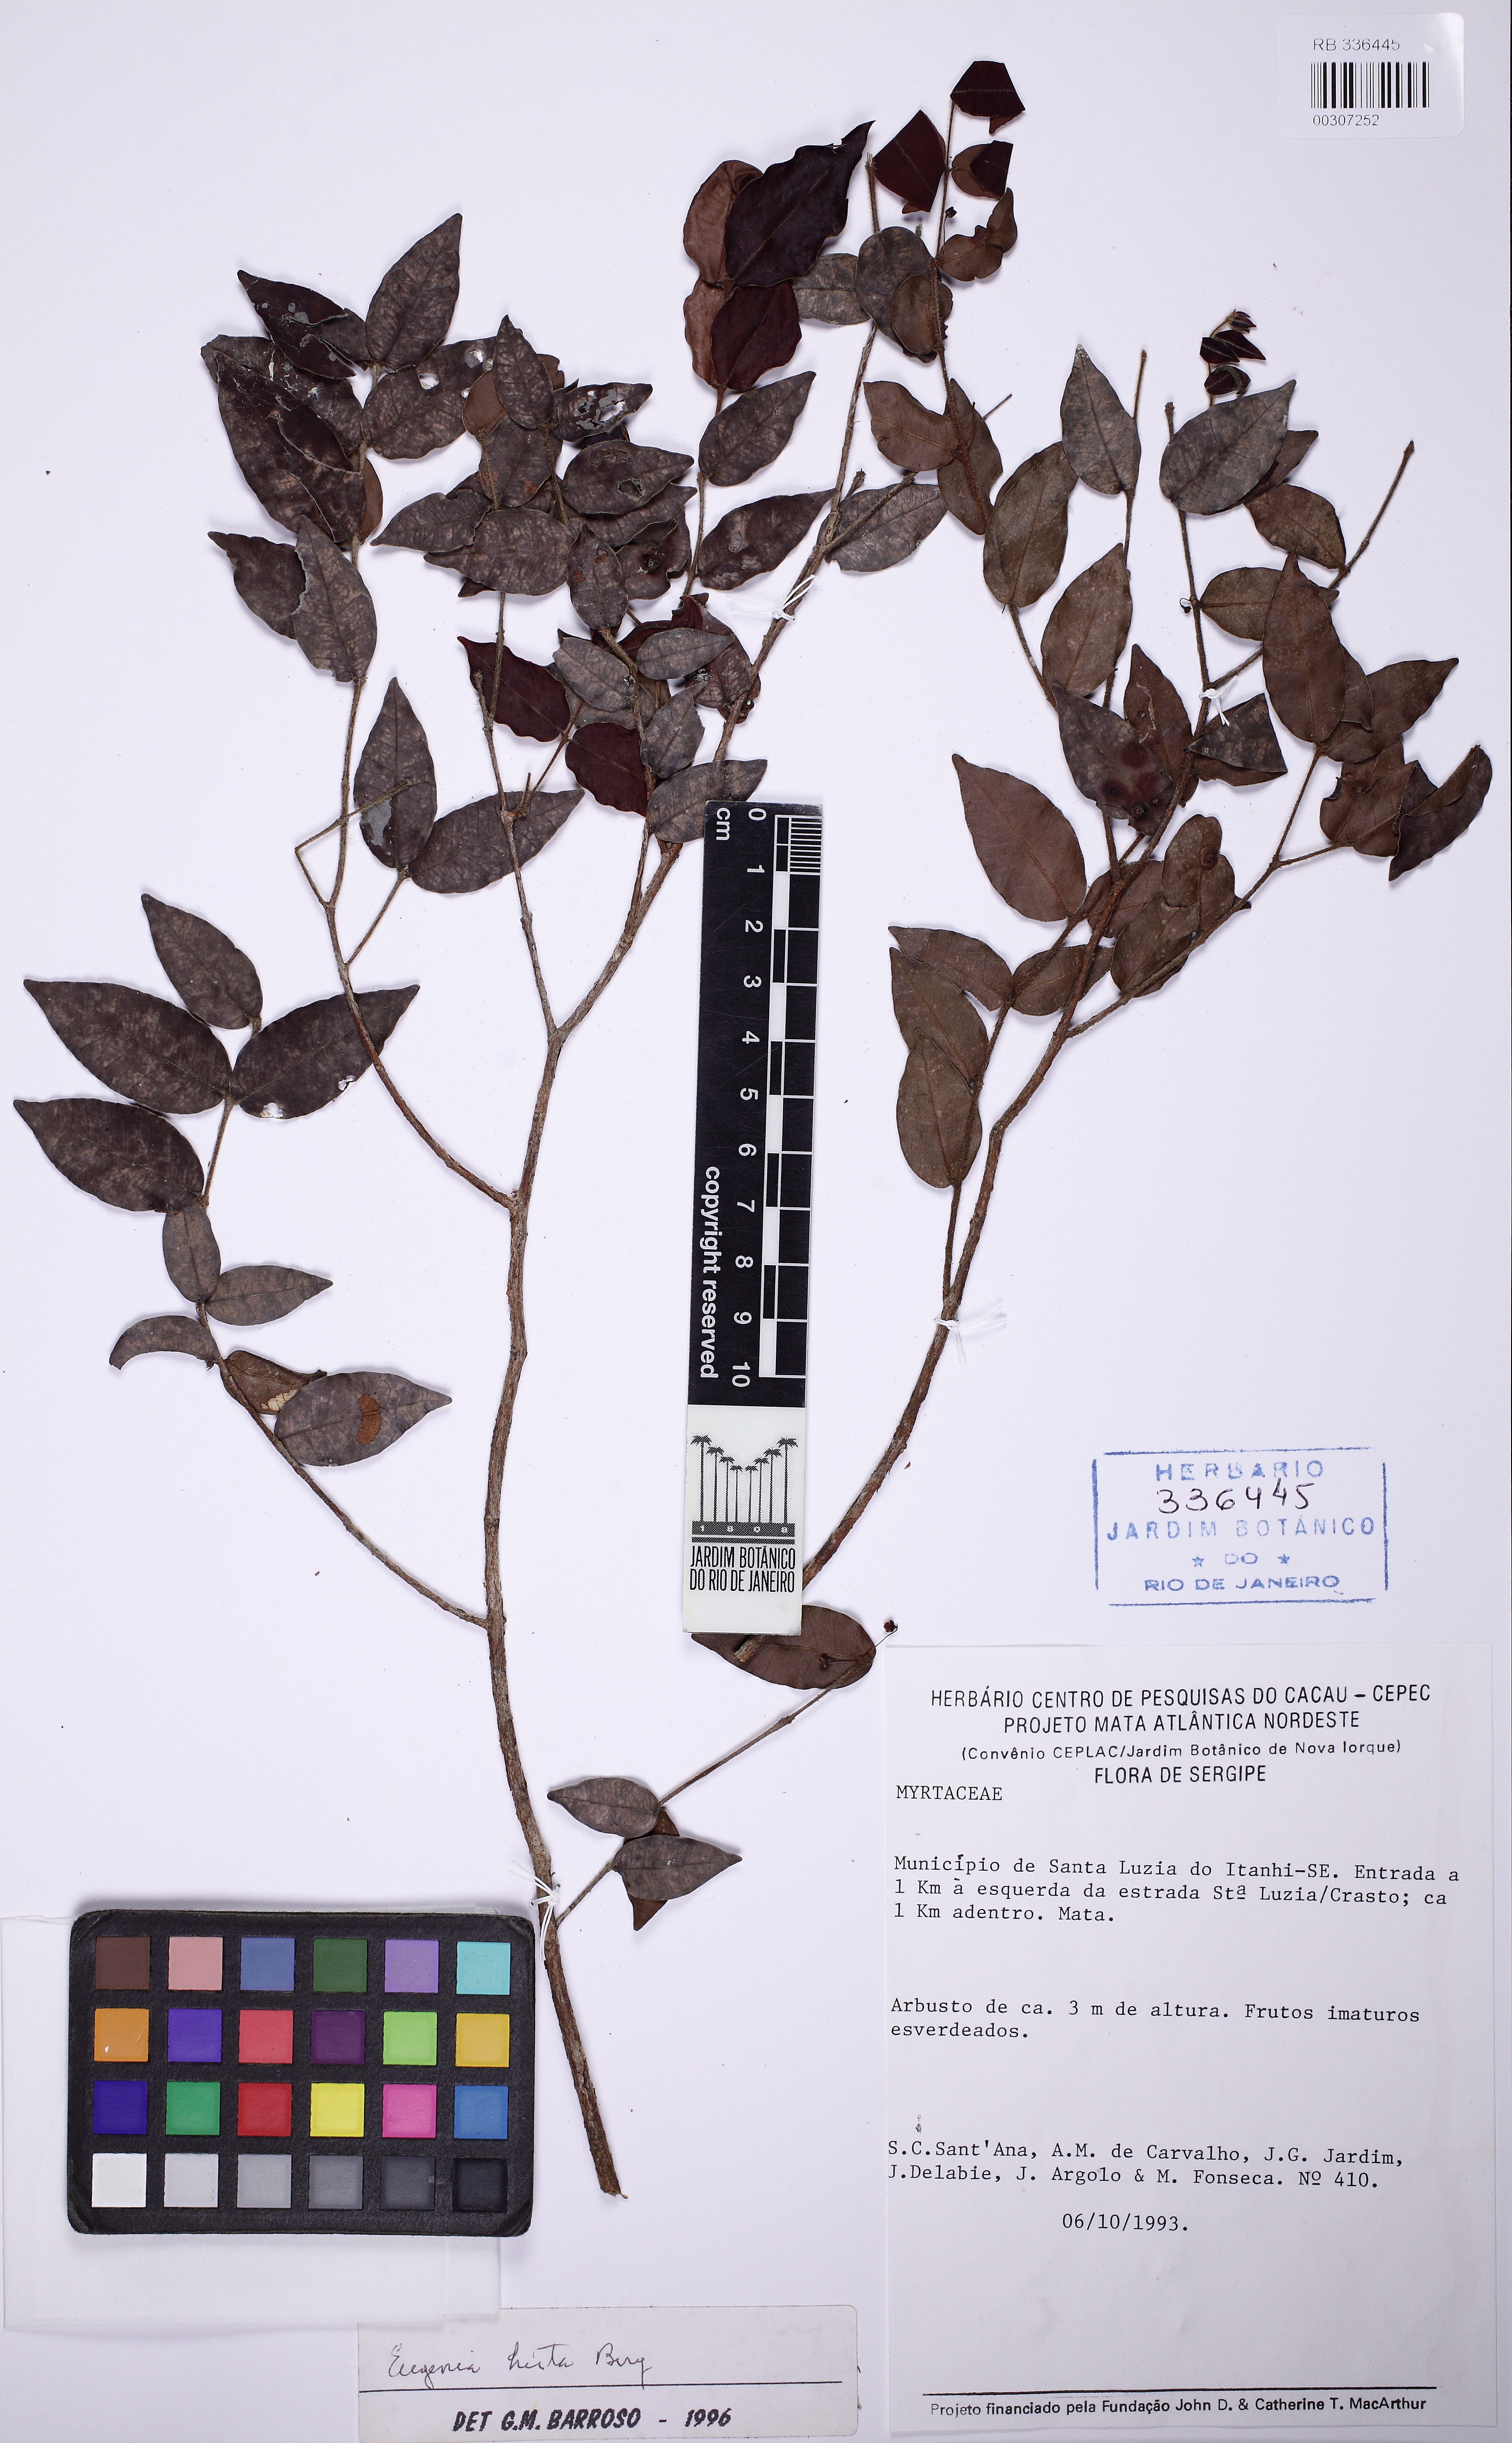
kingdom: Plantae
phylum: Tracheophyta
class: Magnoliopsida
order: Myrtales
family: Myrtaceae
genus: Eugenia
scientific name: Eugenia hirta
